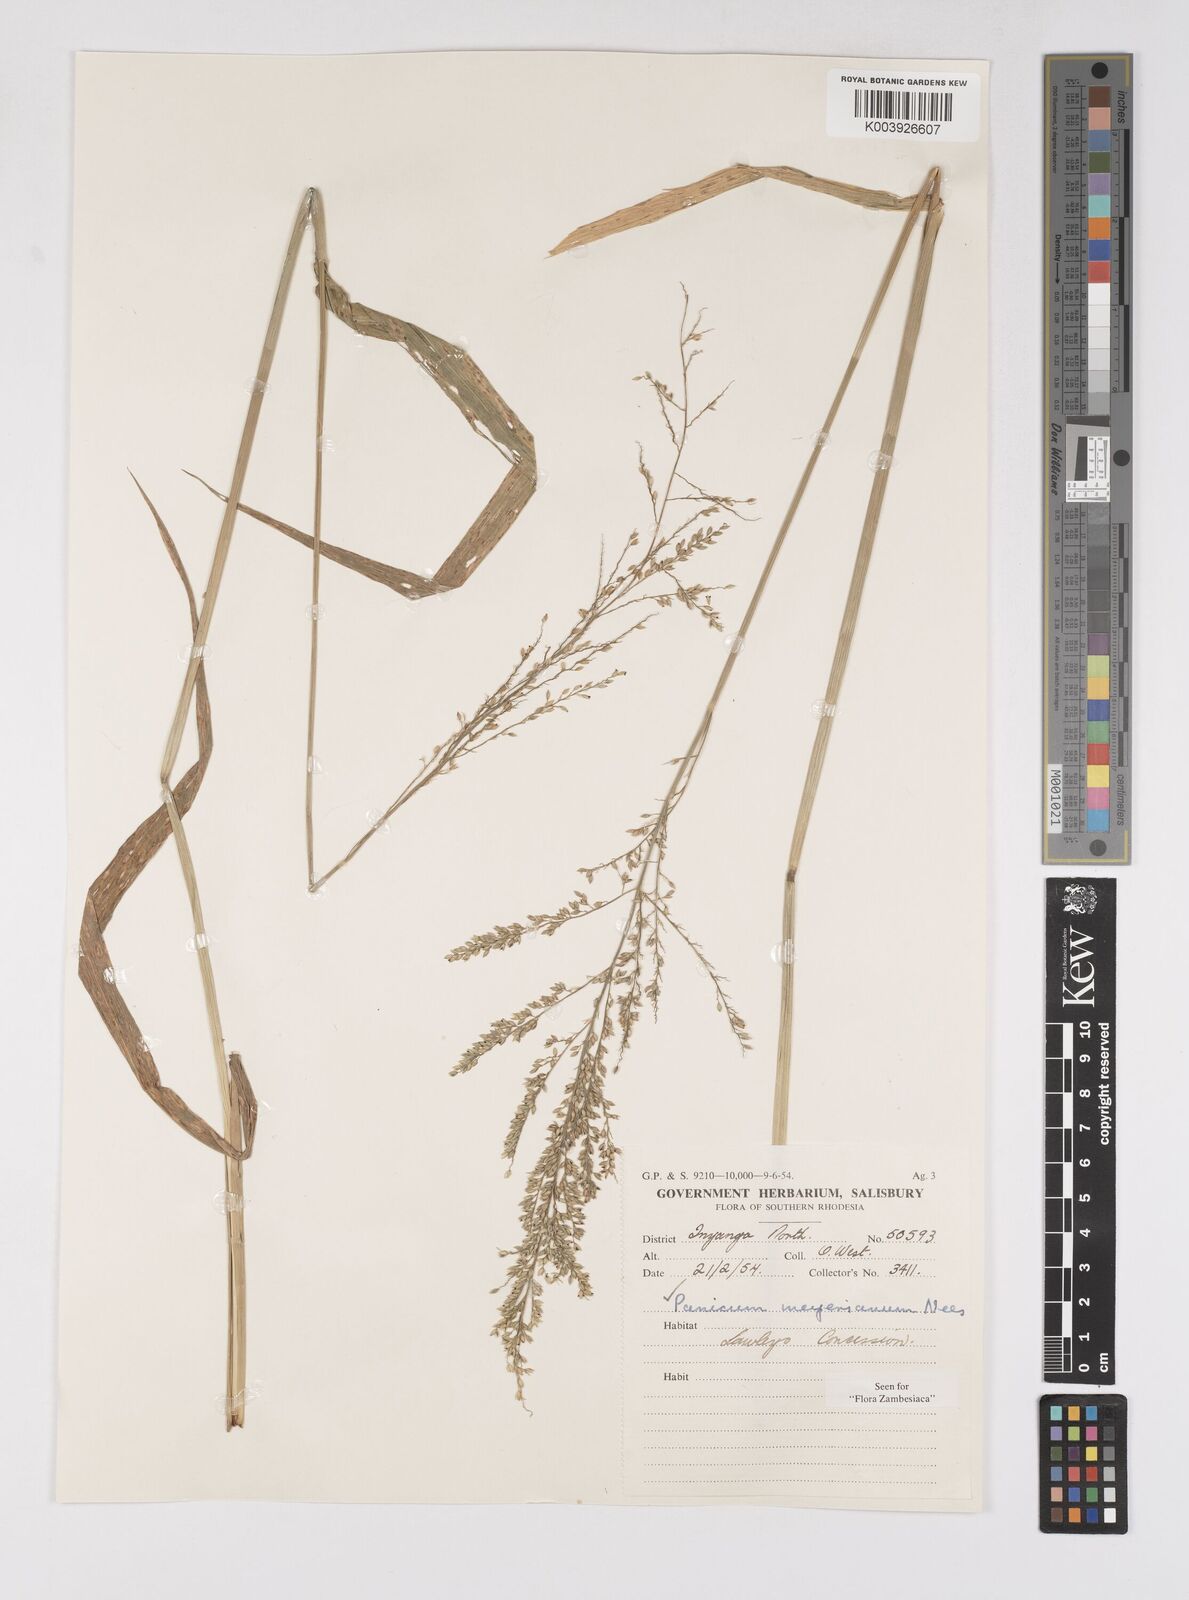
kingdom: Plantae
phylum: Tracheophyta
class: Liliopsida
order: Poales
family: Poaceae
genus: Eriochloa
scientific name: Eriochloa meyeriana
